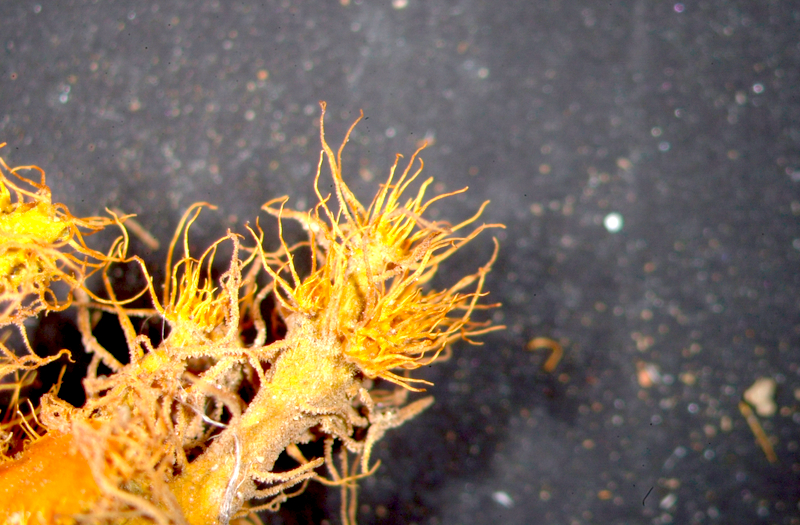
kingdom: Fungi
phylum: Ascomycota
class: Lecanoromycetes
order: Teloschistales
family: Teloschistaceae
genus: Niorma
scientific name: Niorma chrysophthalma
